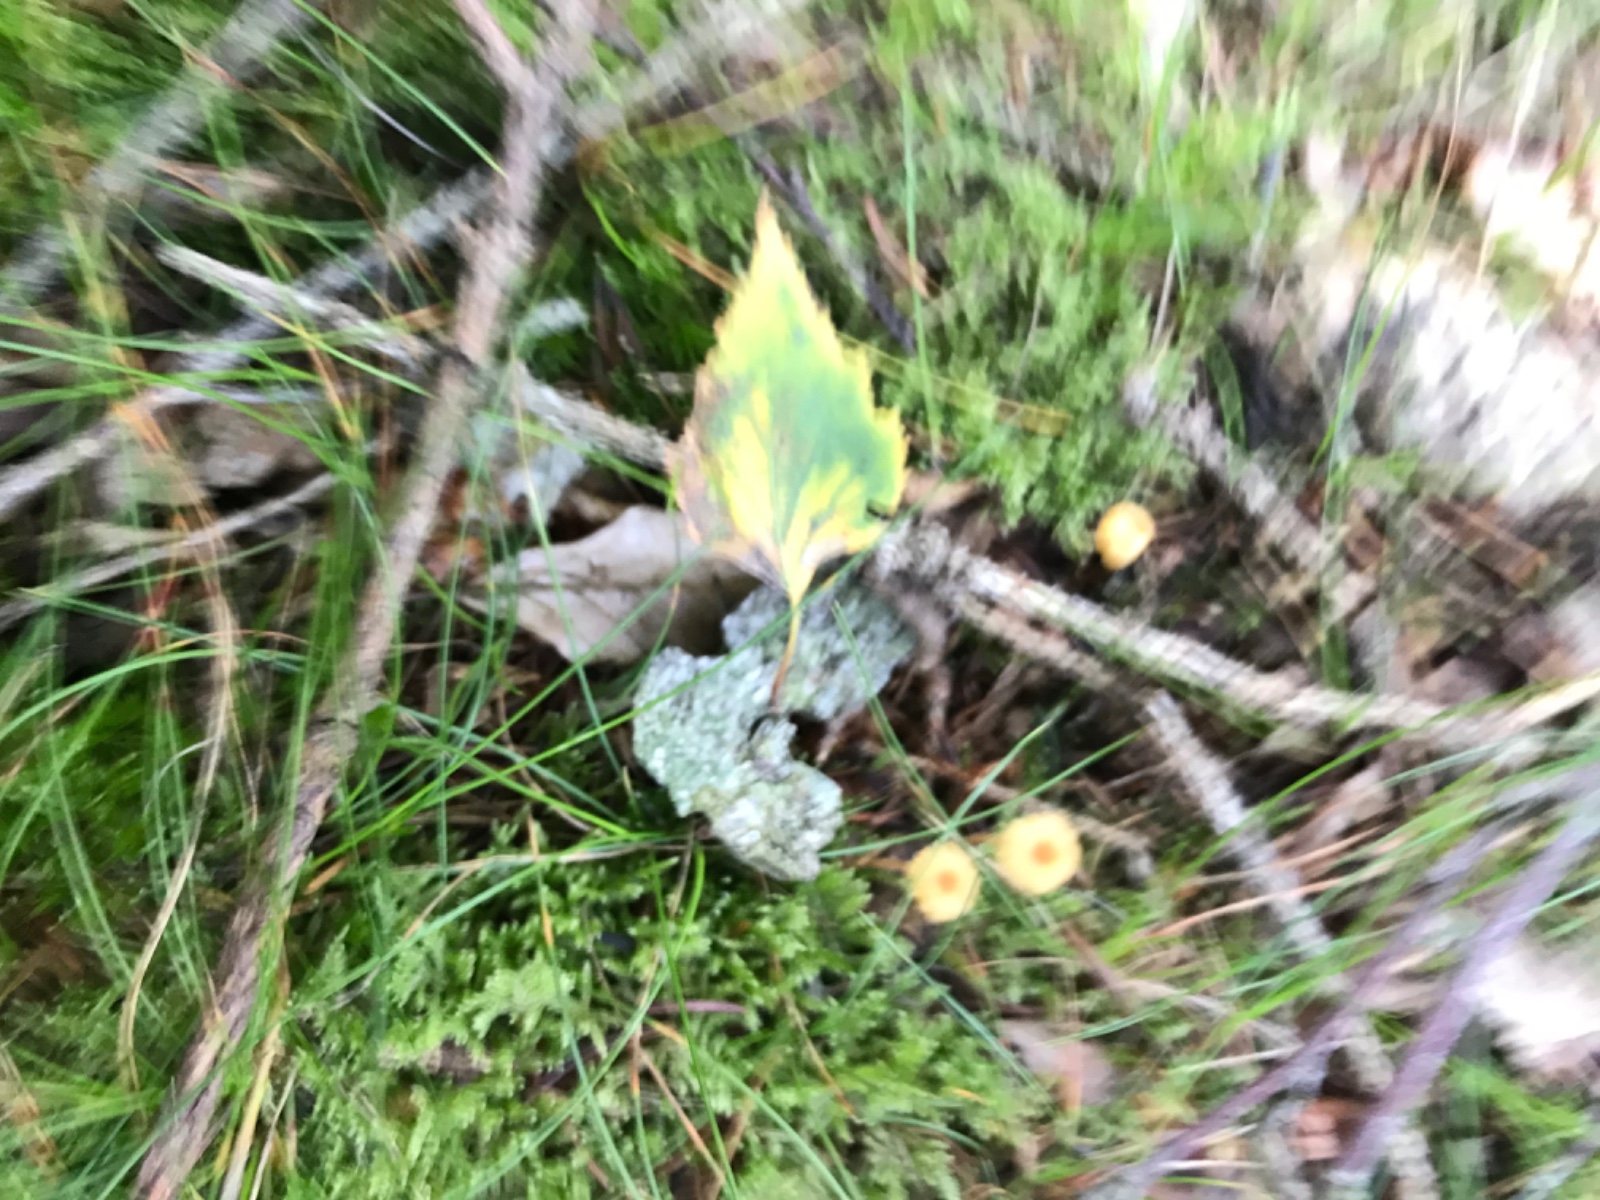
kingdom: Fungi
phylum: Basidiomycota
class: Agaricomycetes
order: Hymenochaetales
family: Rickenellaceae
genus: Rickenella
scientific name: Rickenella fibula
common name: orange mosnavlehat
